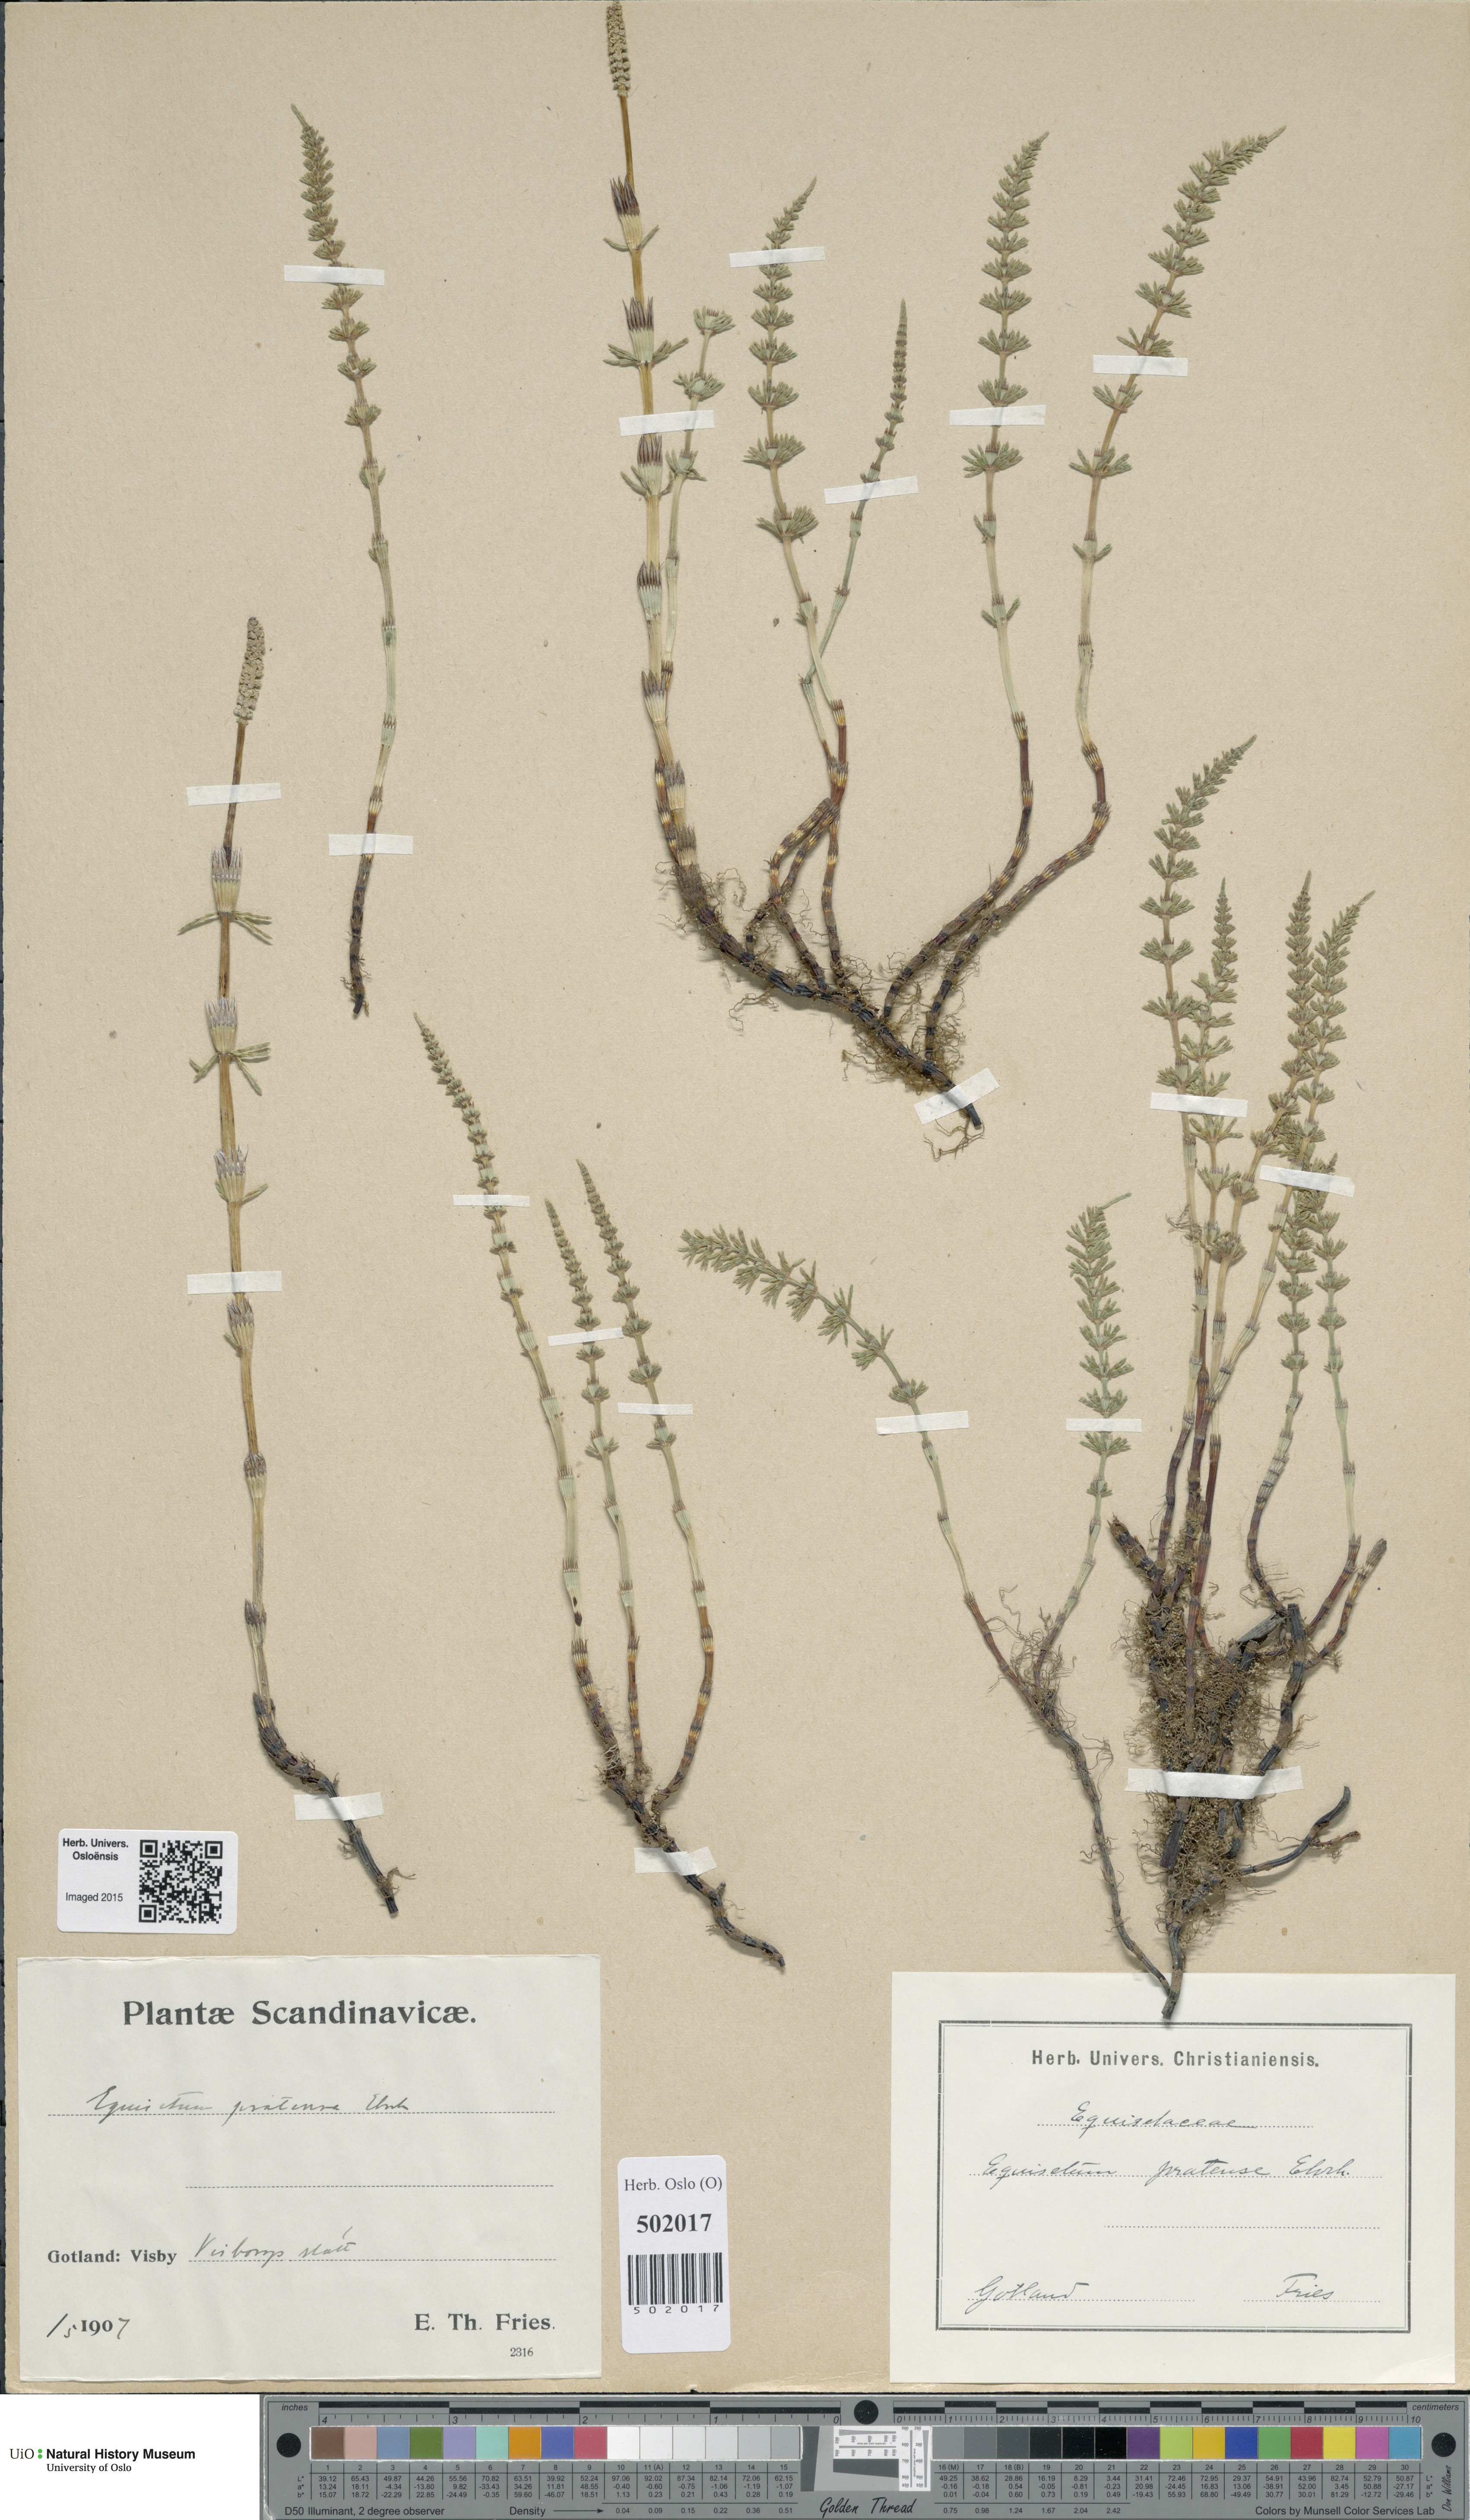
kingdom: Plantae
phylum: Tracheophyta
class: Polypodiopsida
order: Equisetales
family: Equisetaceae
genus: Equisetum
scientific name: Equisetum pratense
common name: Meadow horsetail
